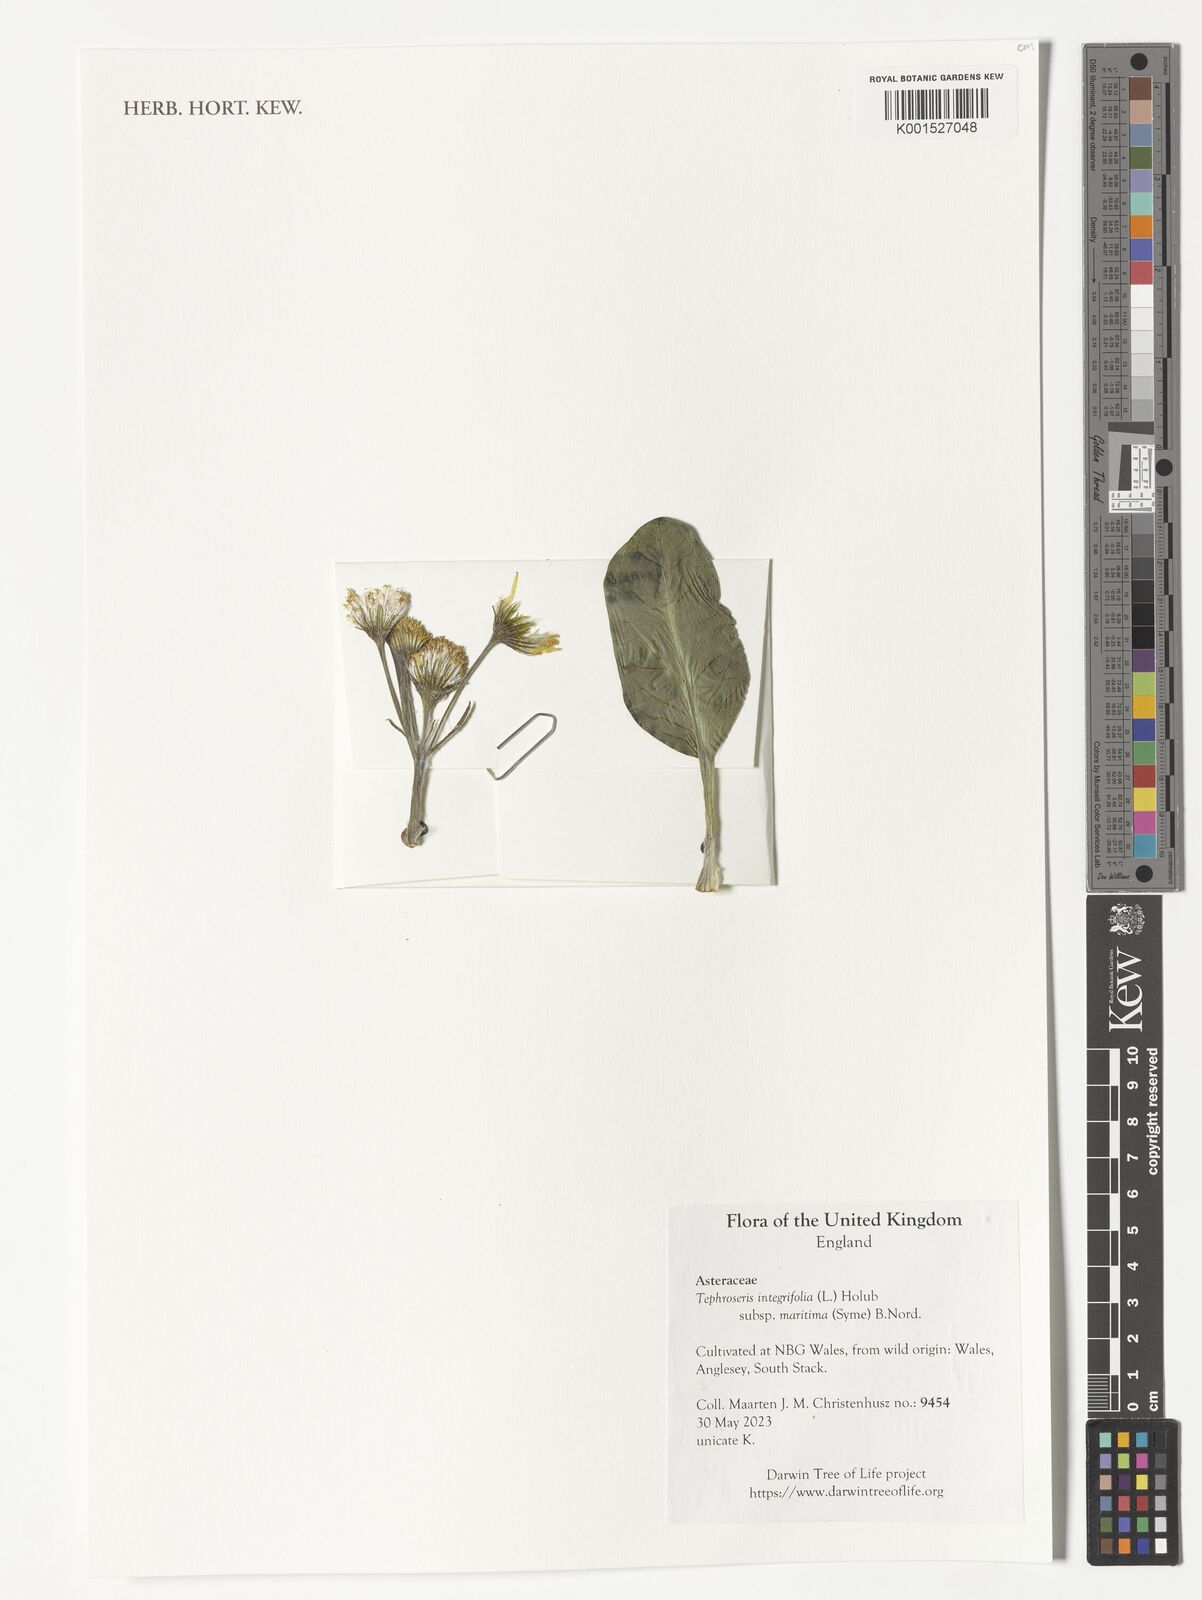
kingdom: Plantae
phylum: Tracheophyta
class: Magnoliopsida
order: Asterales
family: Asteraceae
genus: Tephroseris
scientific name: Tephroseris integrifolia
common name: Field fleawort
